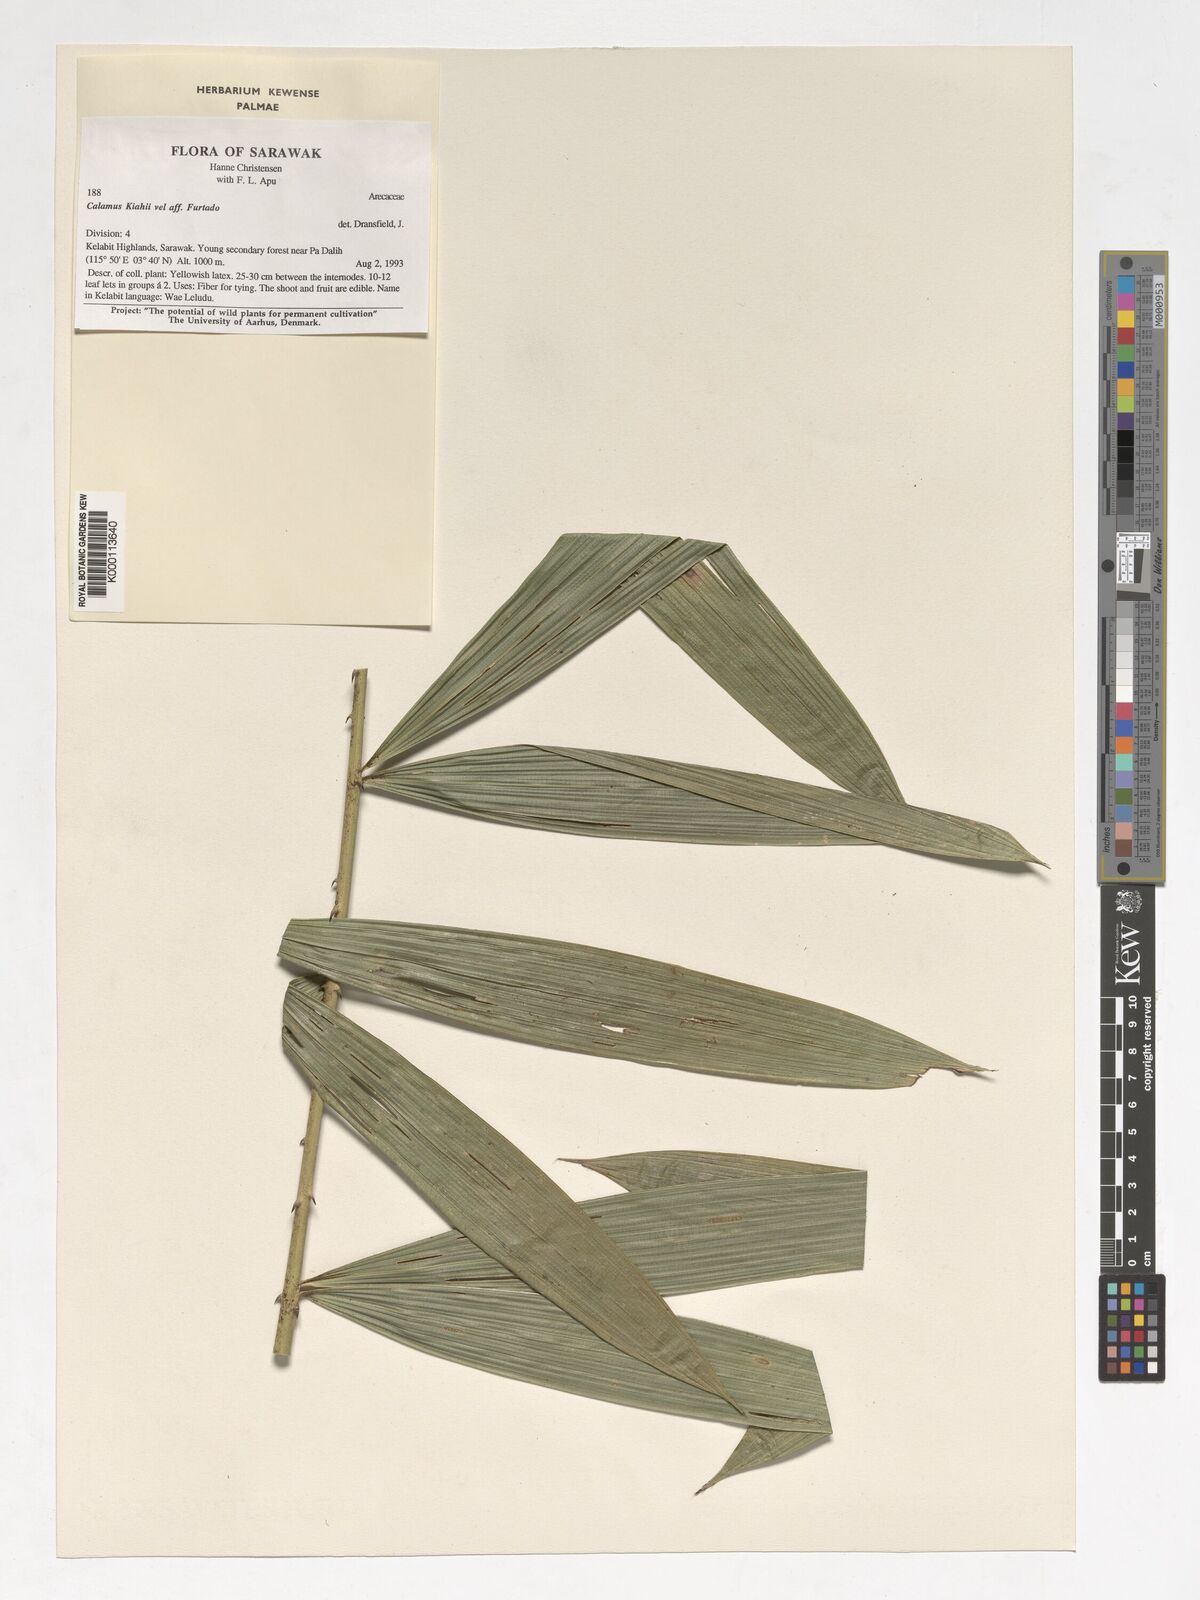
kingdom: Plantae
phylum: Tracheophyta
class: Liliopsida
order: Arecales
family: Arecaceae
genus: Calamus
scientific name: Calamus plicatus
